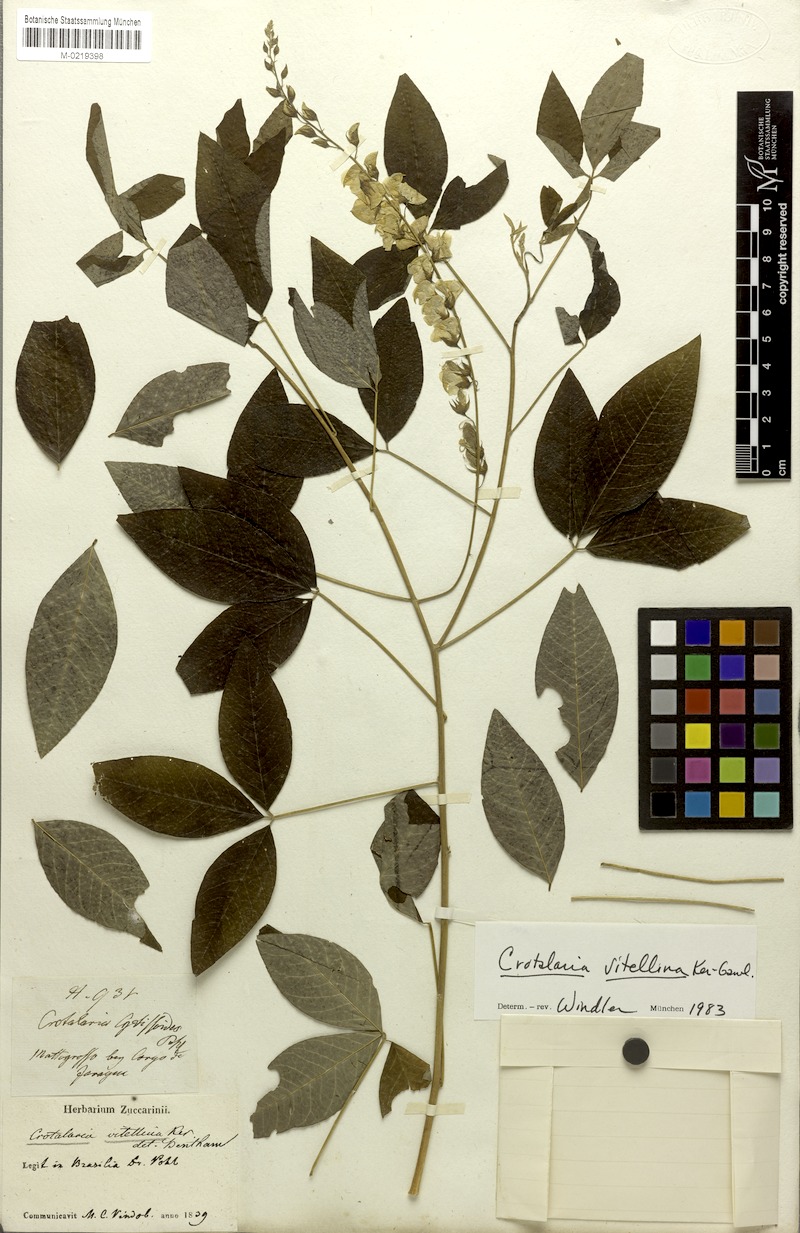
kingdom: Plantae
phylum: Tracheophyta
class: Magnoliopsida
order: Fabales
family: Fabaceae
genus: Crotalaria
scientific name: Crotalaria vitellina
